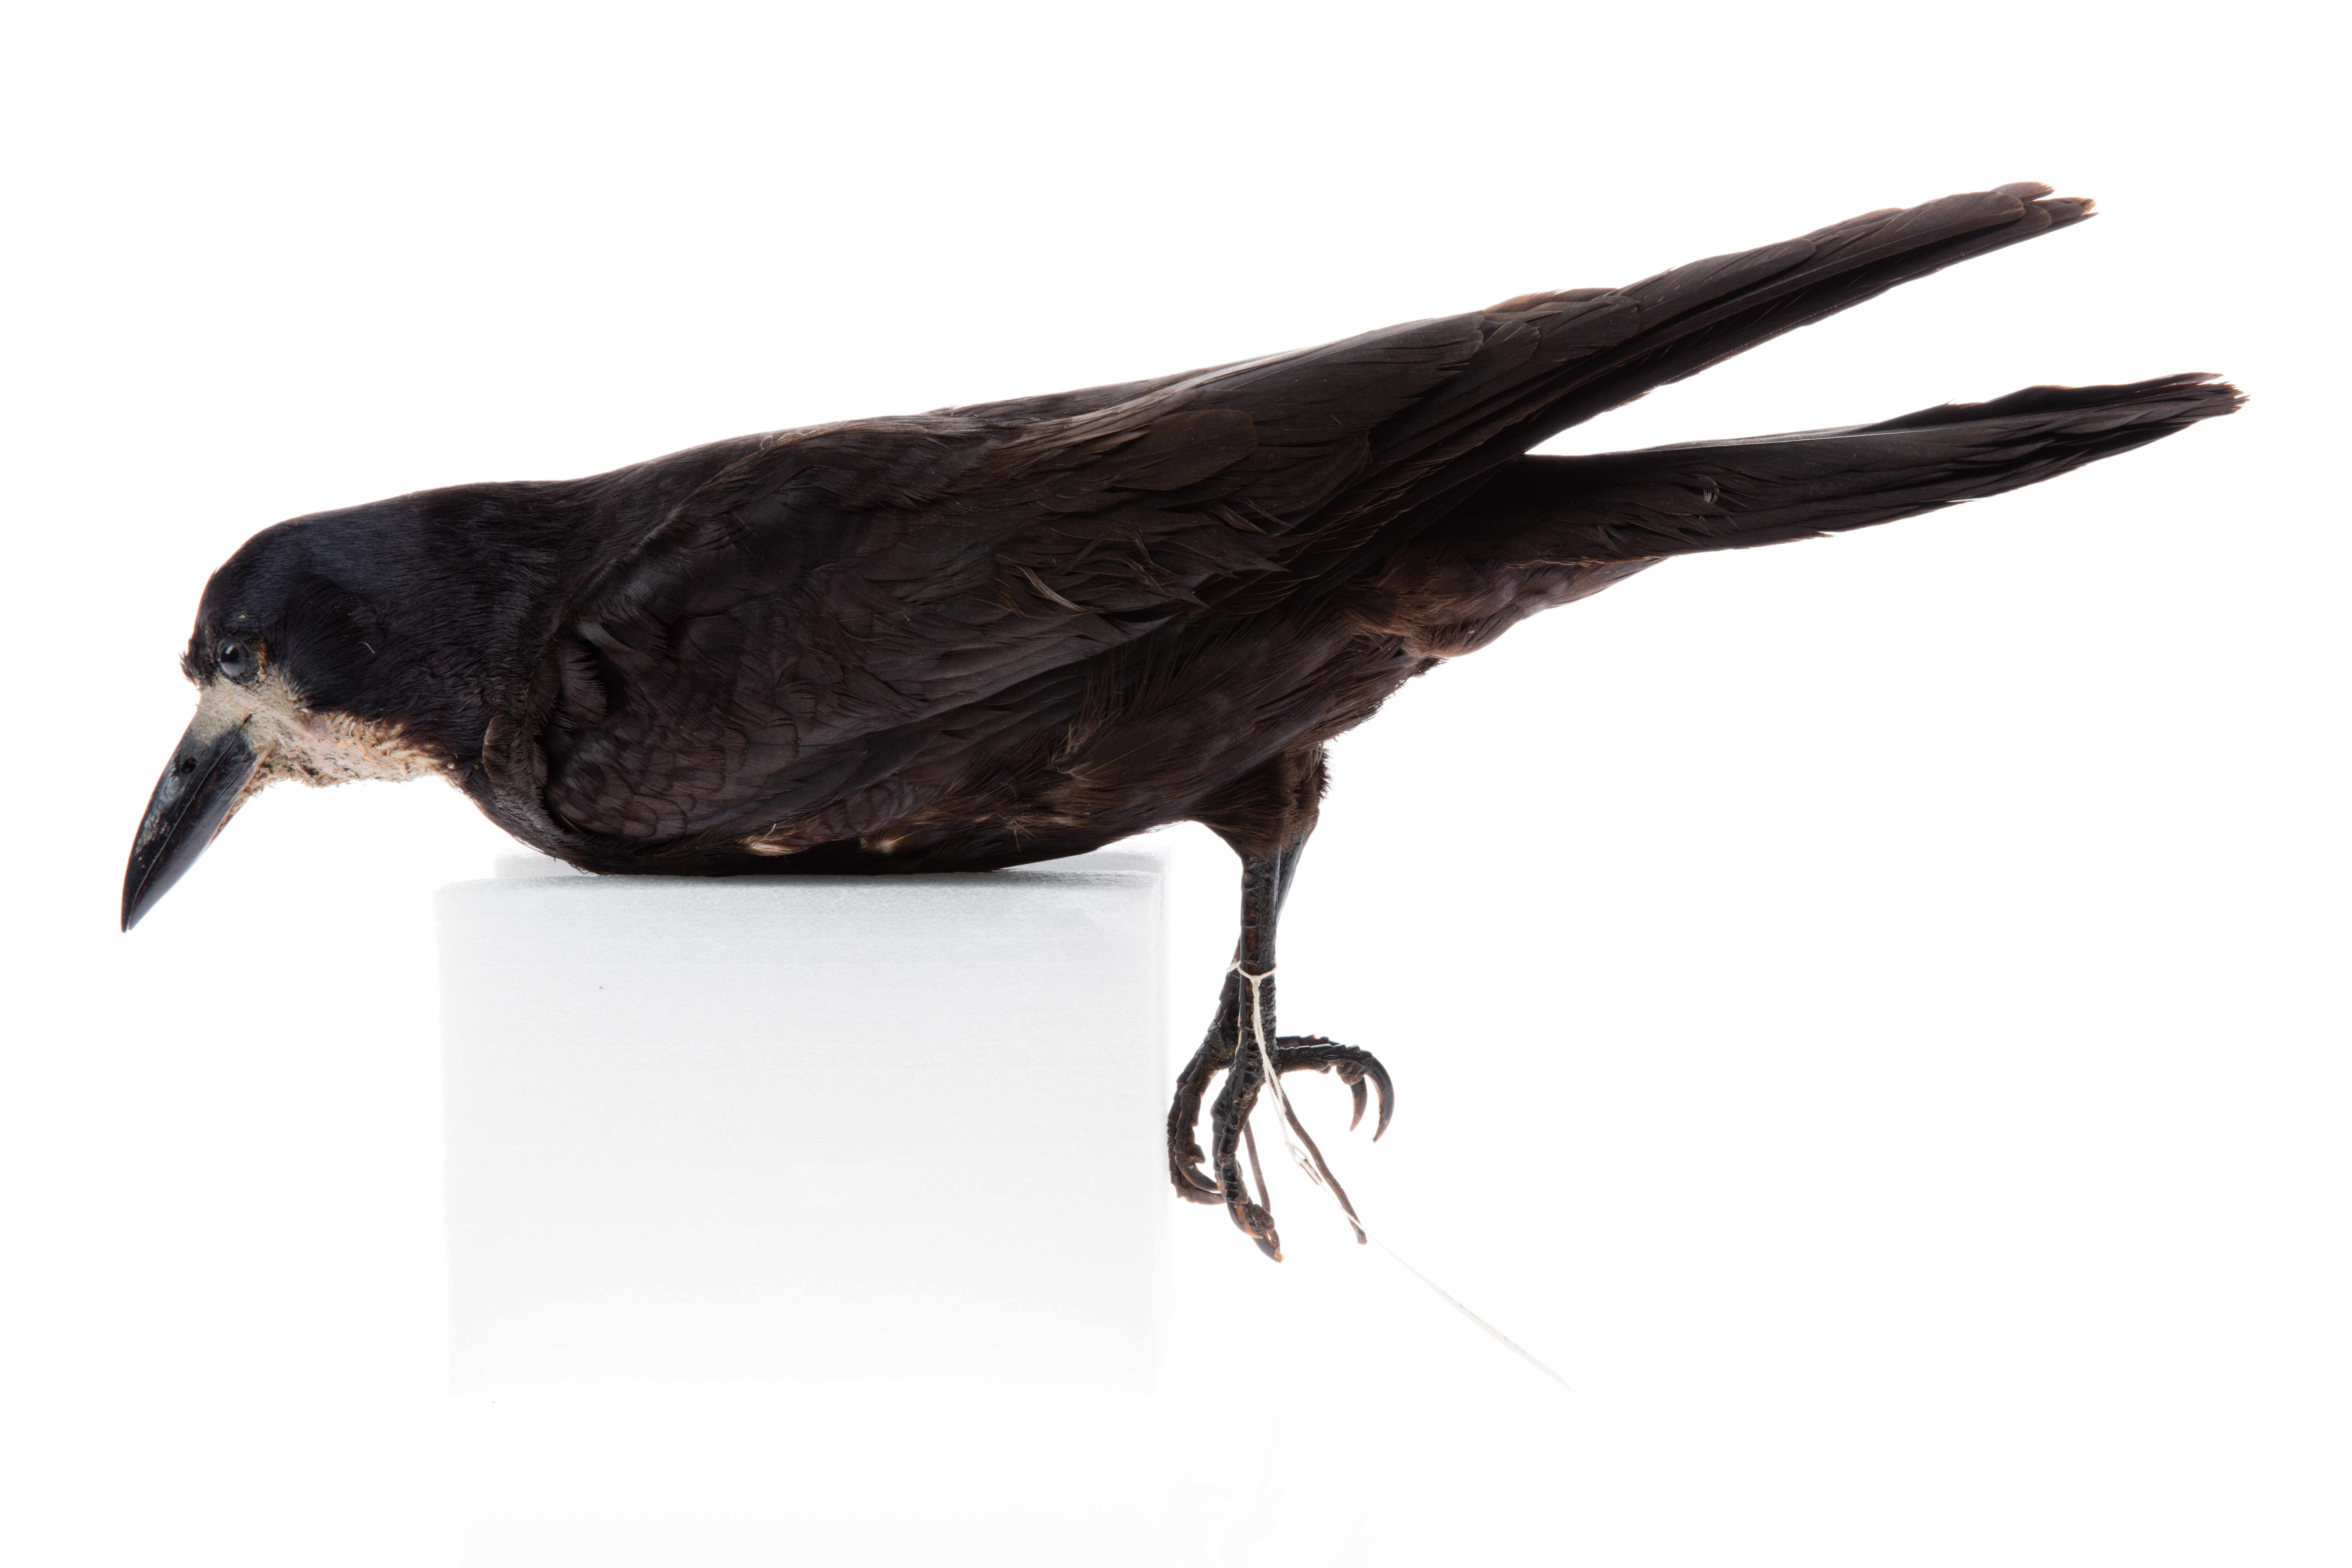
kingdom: Animalia
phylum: Chordata
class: Aves
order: Passeriformes
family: Corvidae
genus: Corvus
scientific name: Corvus frugilegus
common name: Rook
